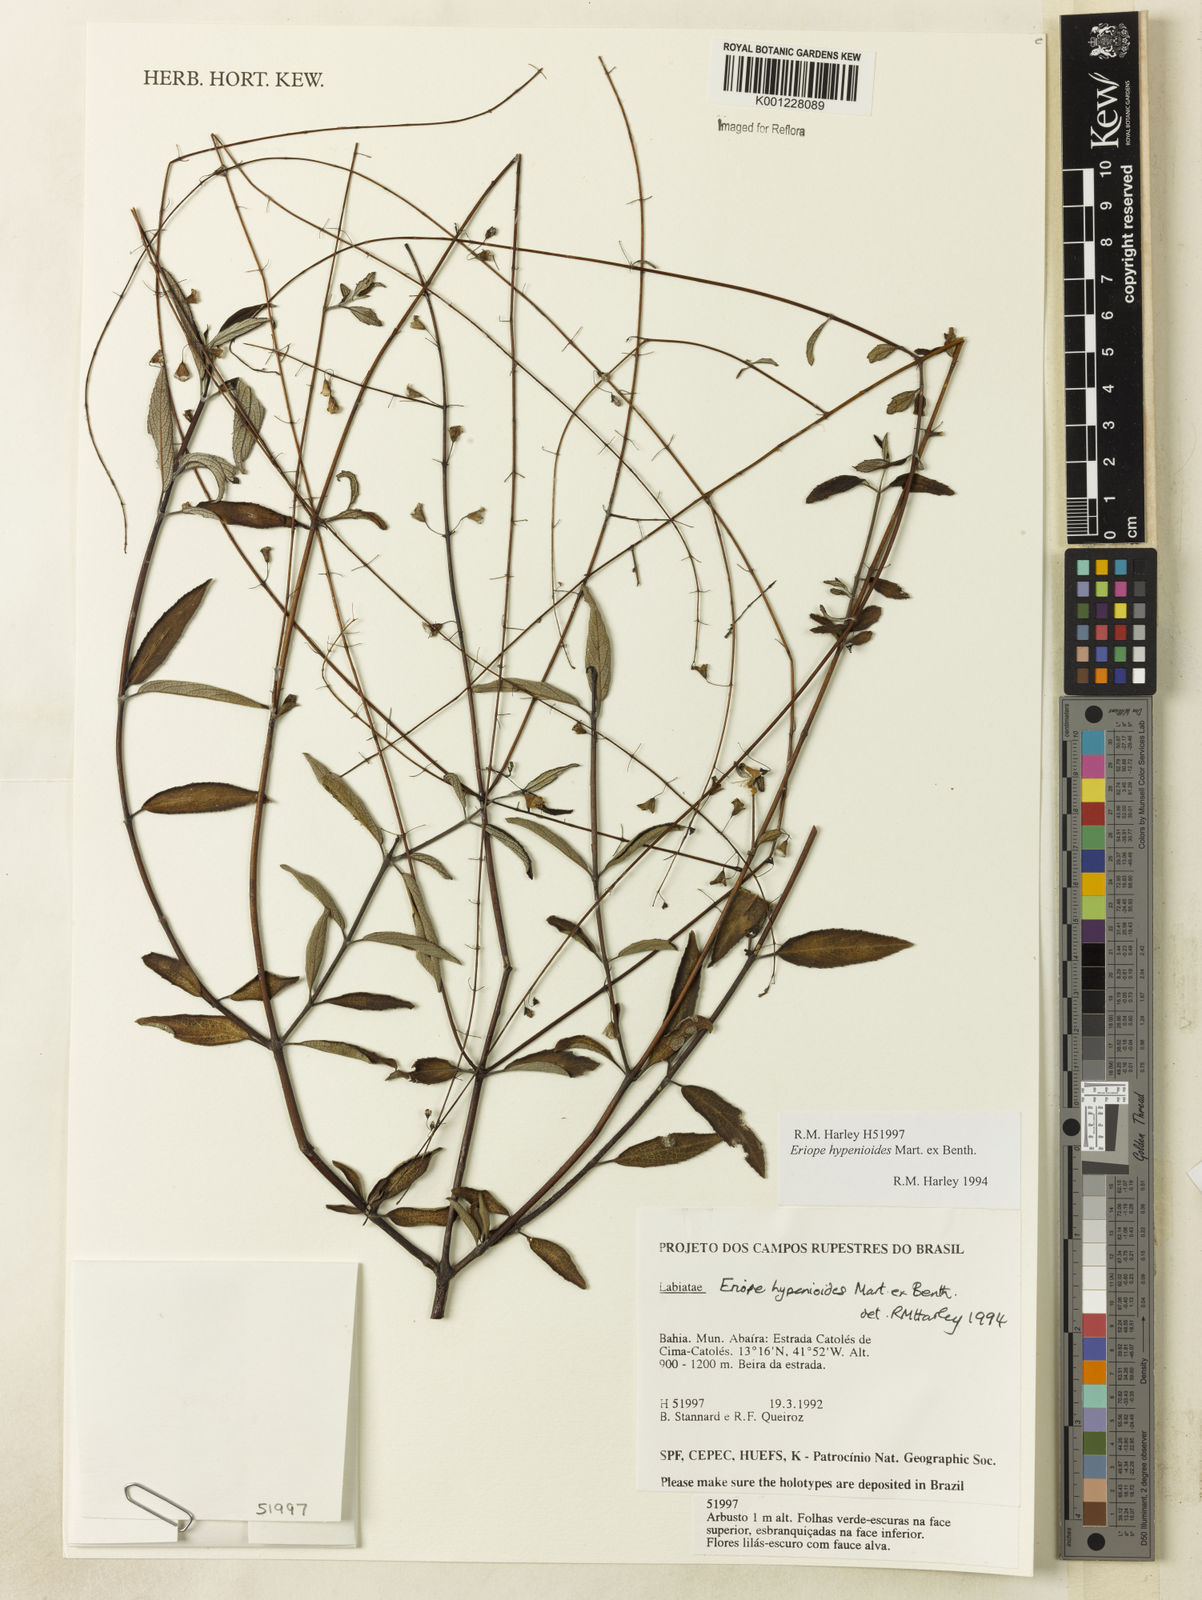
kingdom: Plantae
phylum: Tracheophyta
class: Magnoliopsida
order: Lamiales
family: Lamiaceae
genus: Eriope
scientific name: Eriope hypenioides
